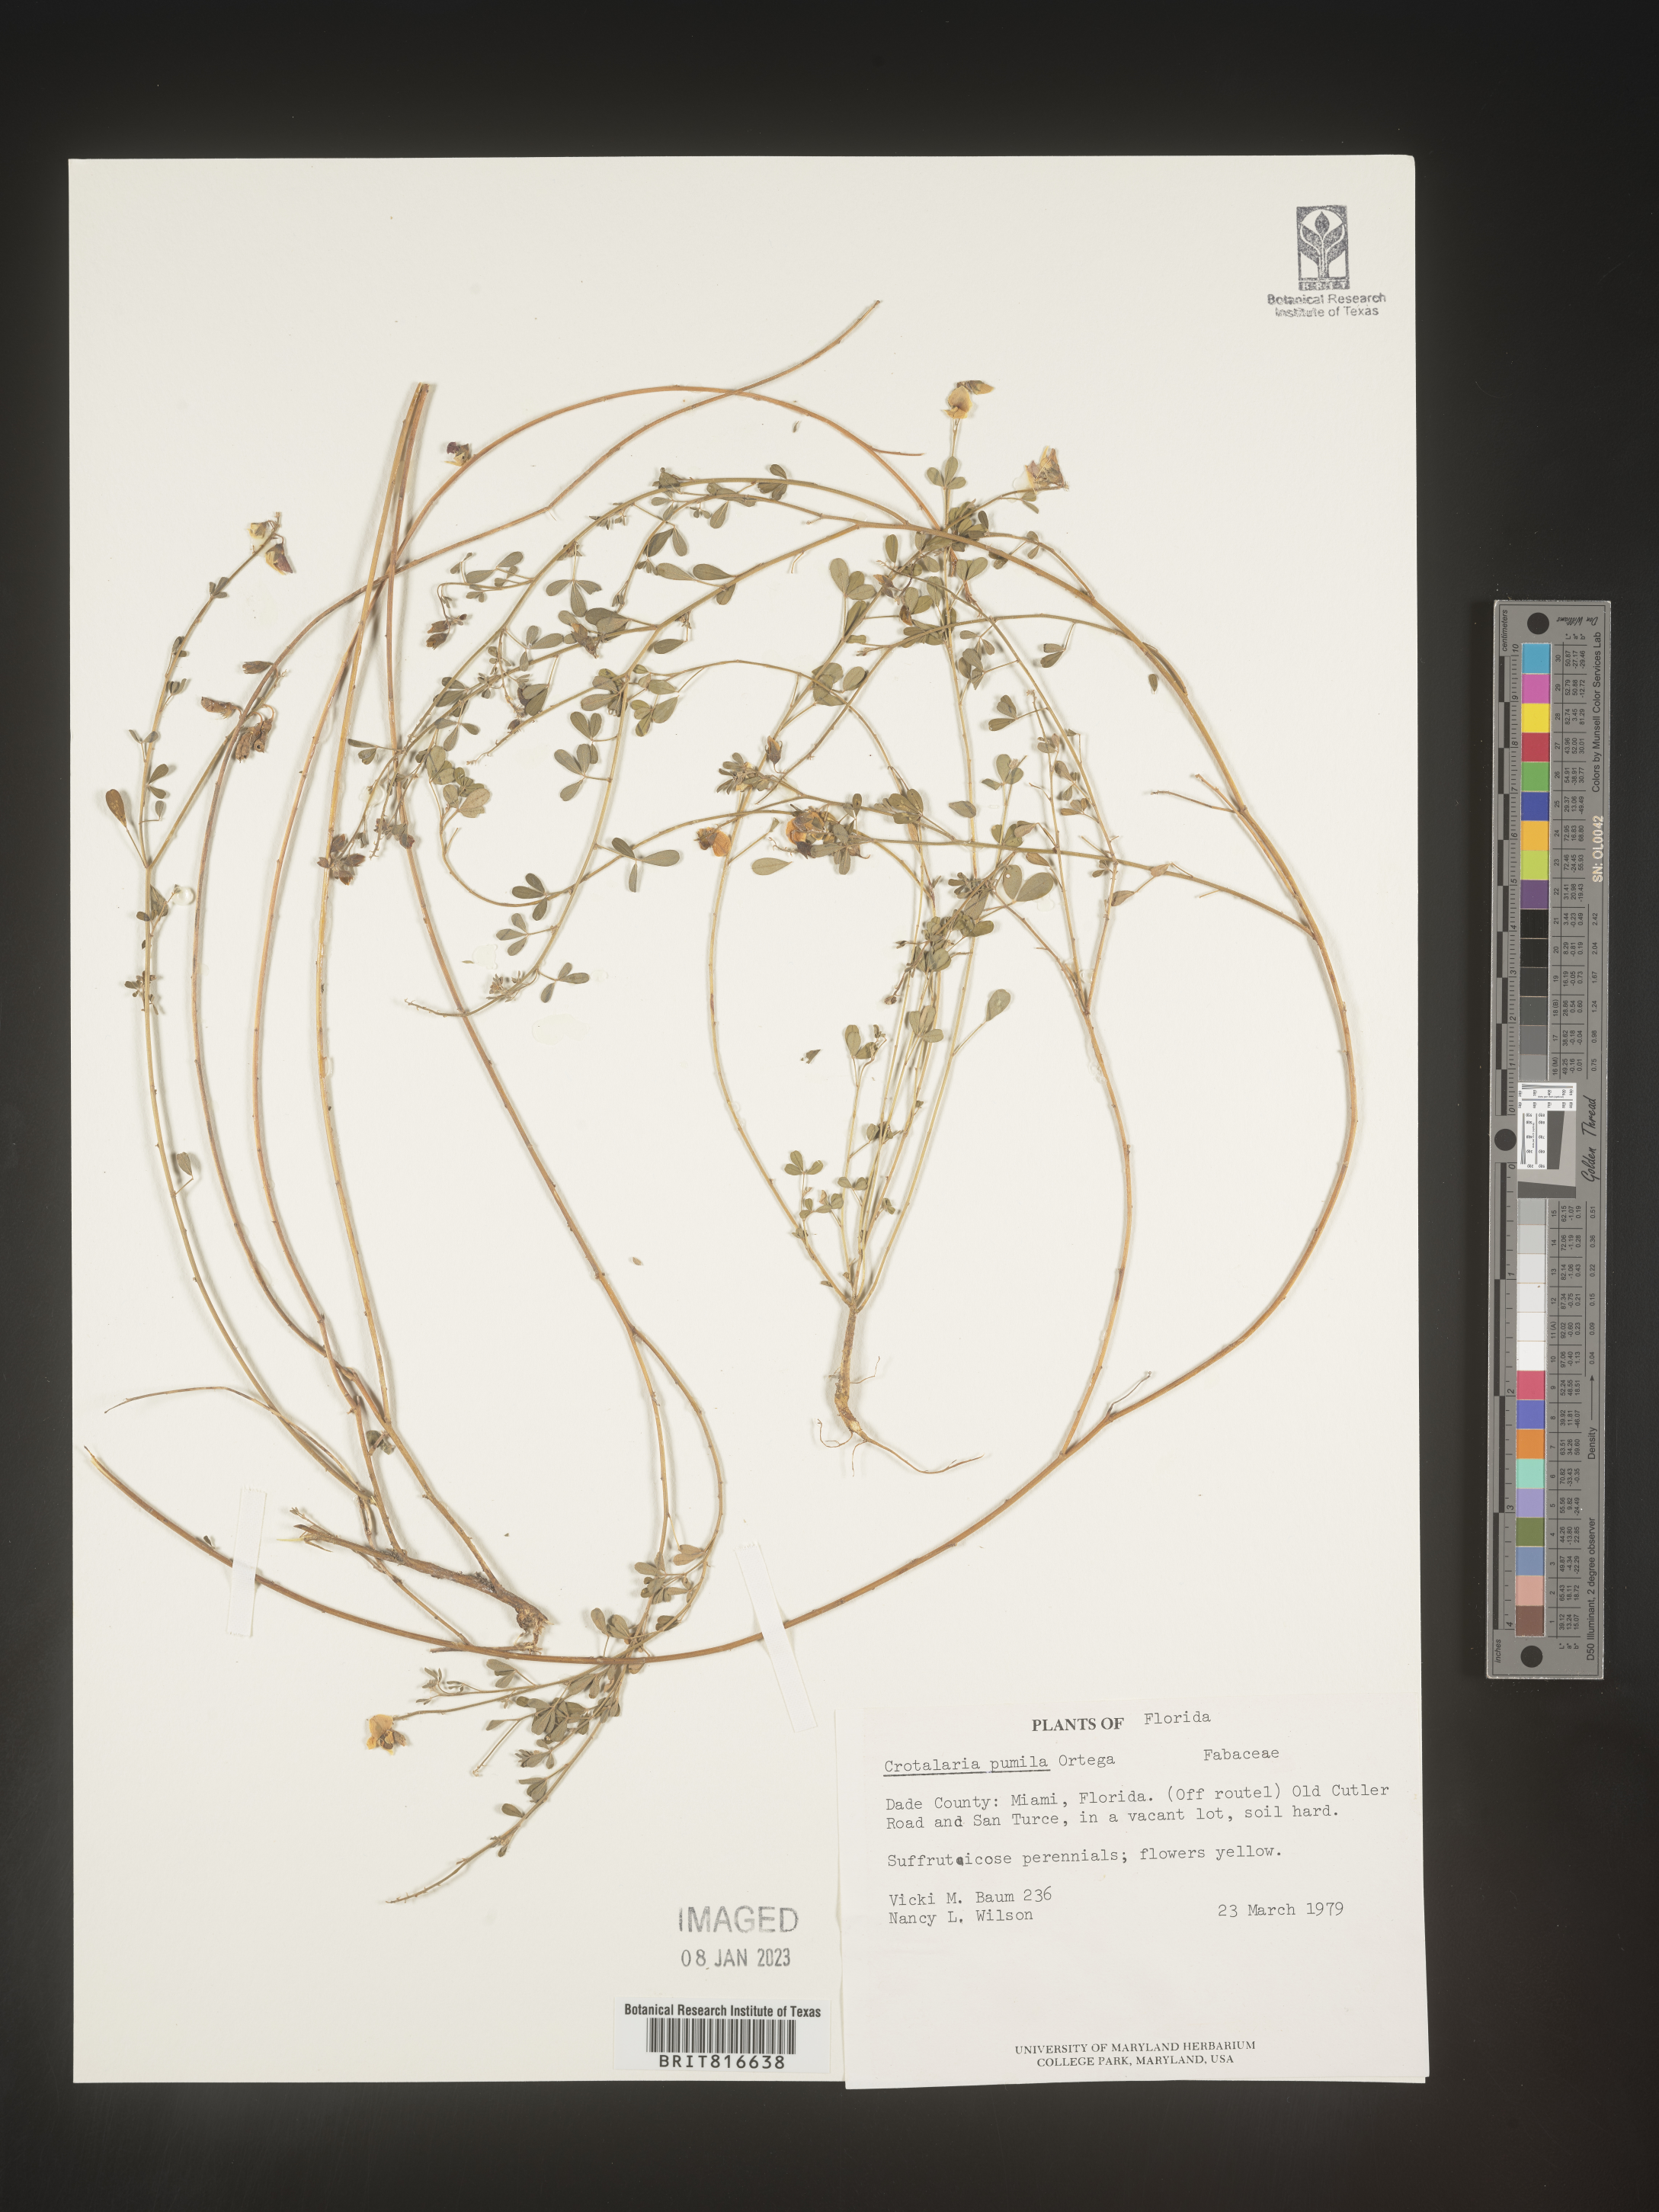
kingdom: Plantae
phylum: Tracheophyta
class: Magnoliopsida
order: Fabales
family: Fabaceae
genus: Crotalaria
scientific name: Crotalaria pumila
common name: Low rattlebox
